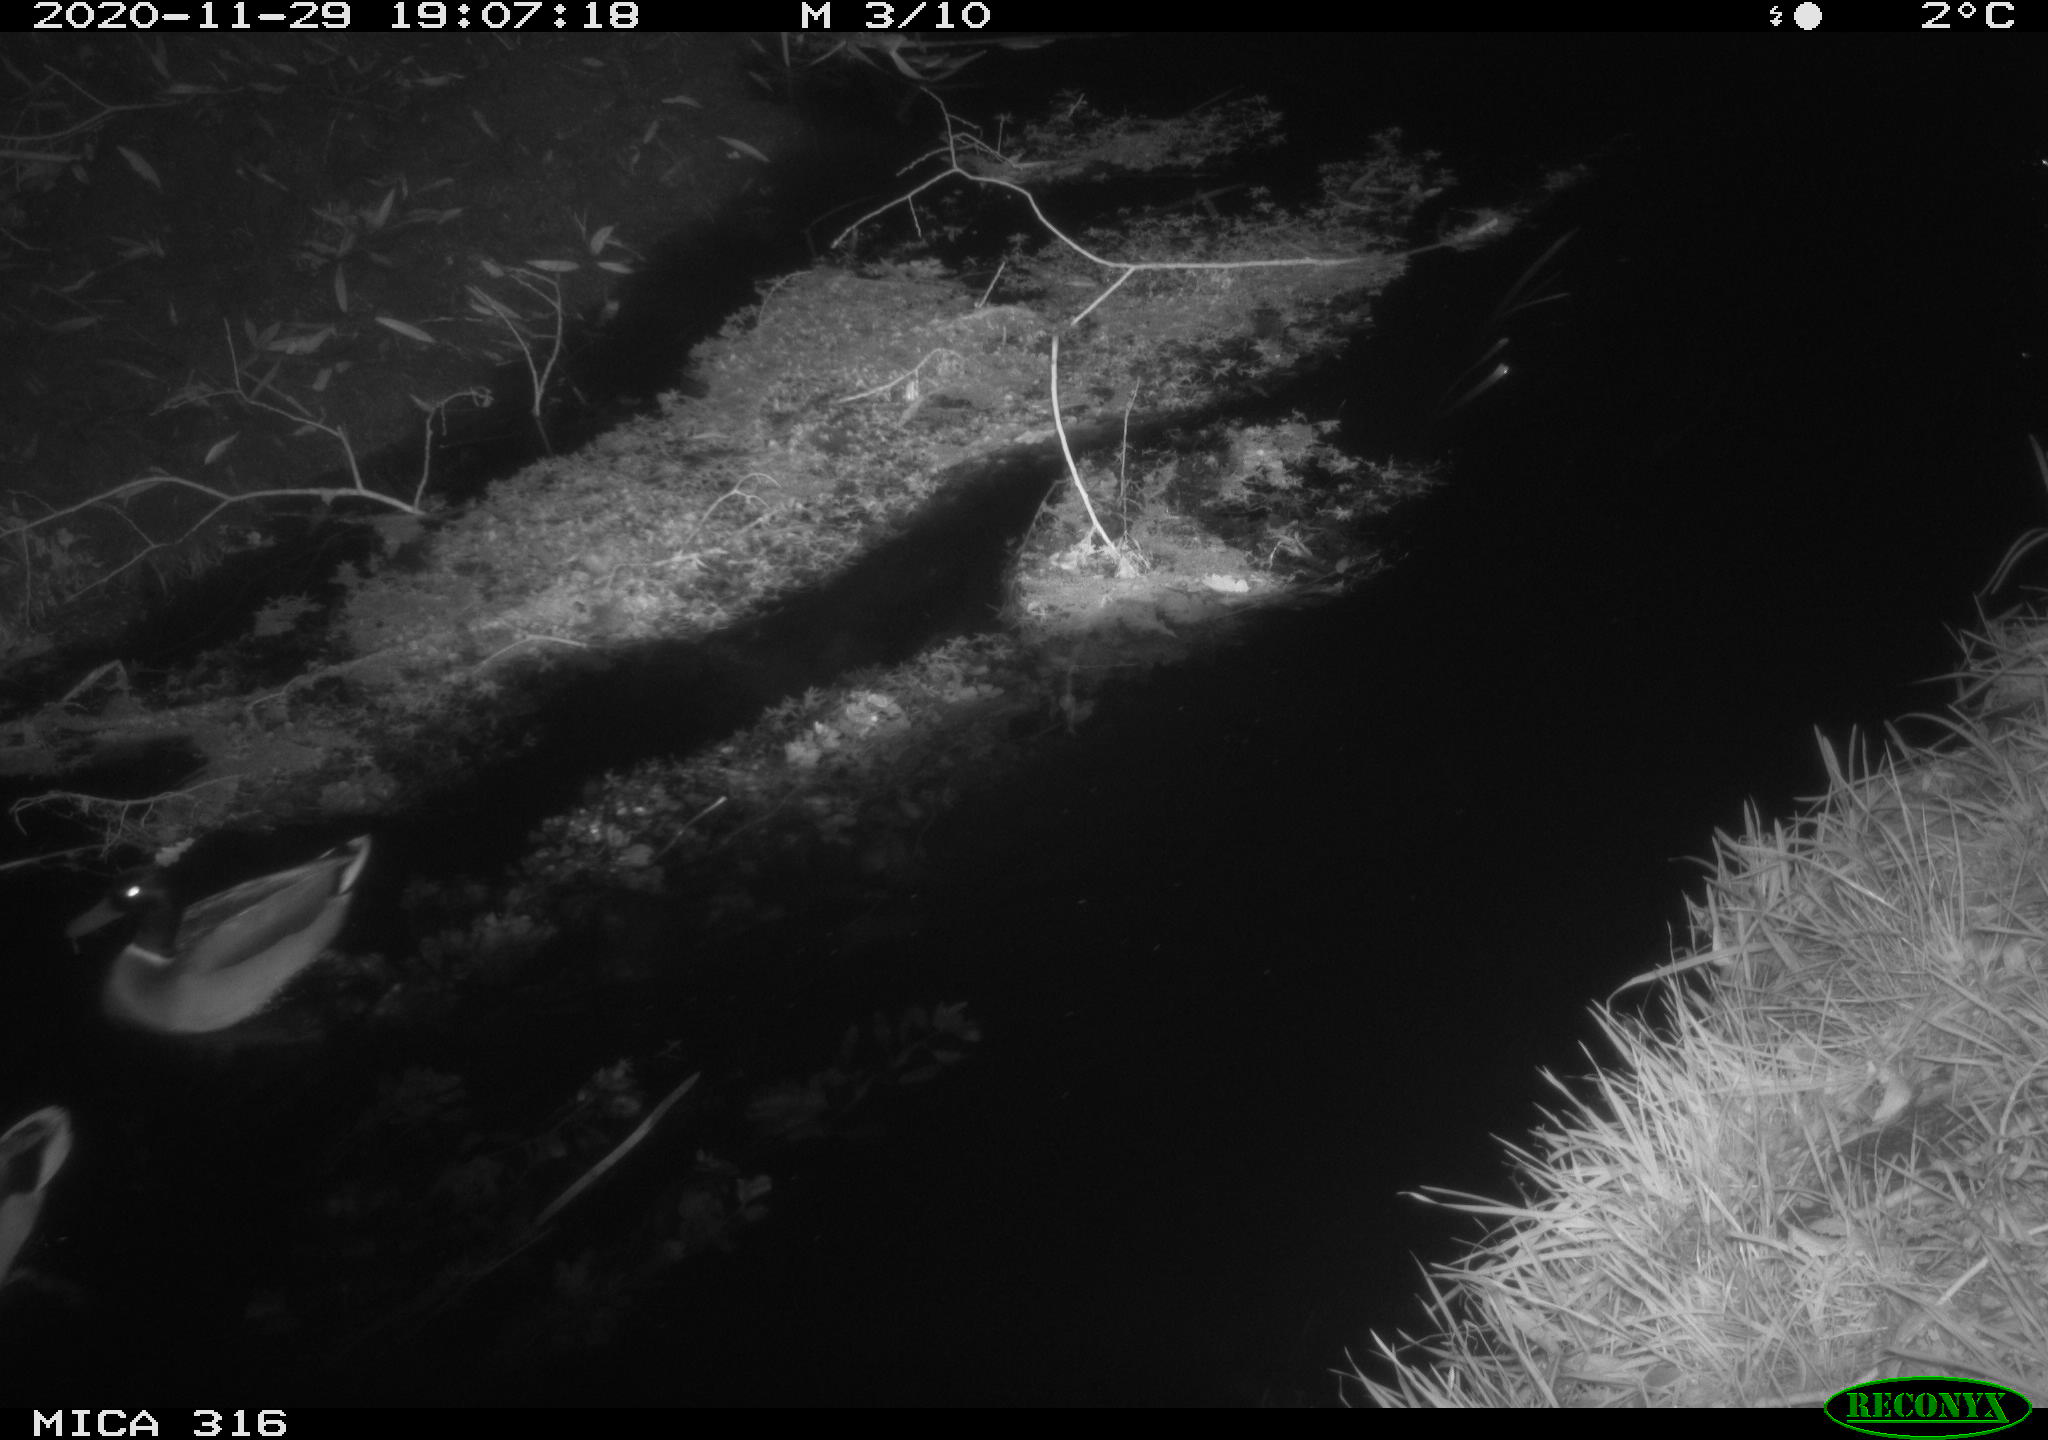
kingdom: Animalia
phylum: Chordata
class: Aves
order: Anseriformes
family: Anatidae
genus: Anas
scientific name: Anas platyrhynchos
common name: Mallard
